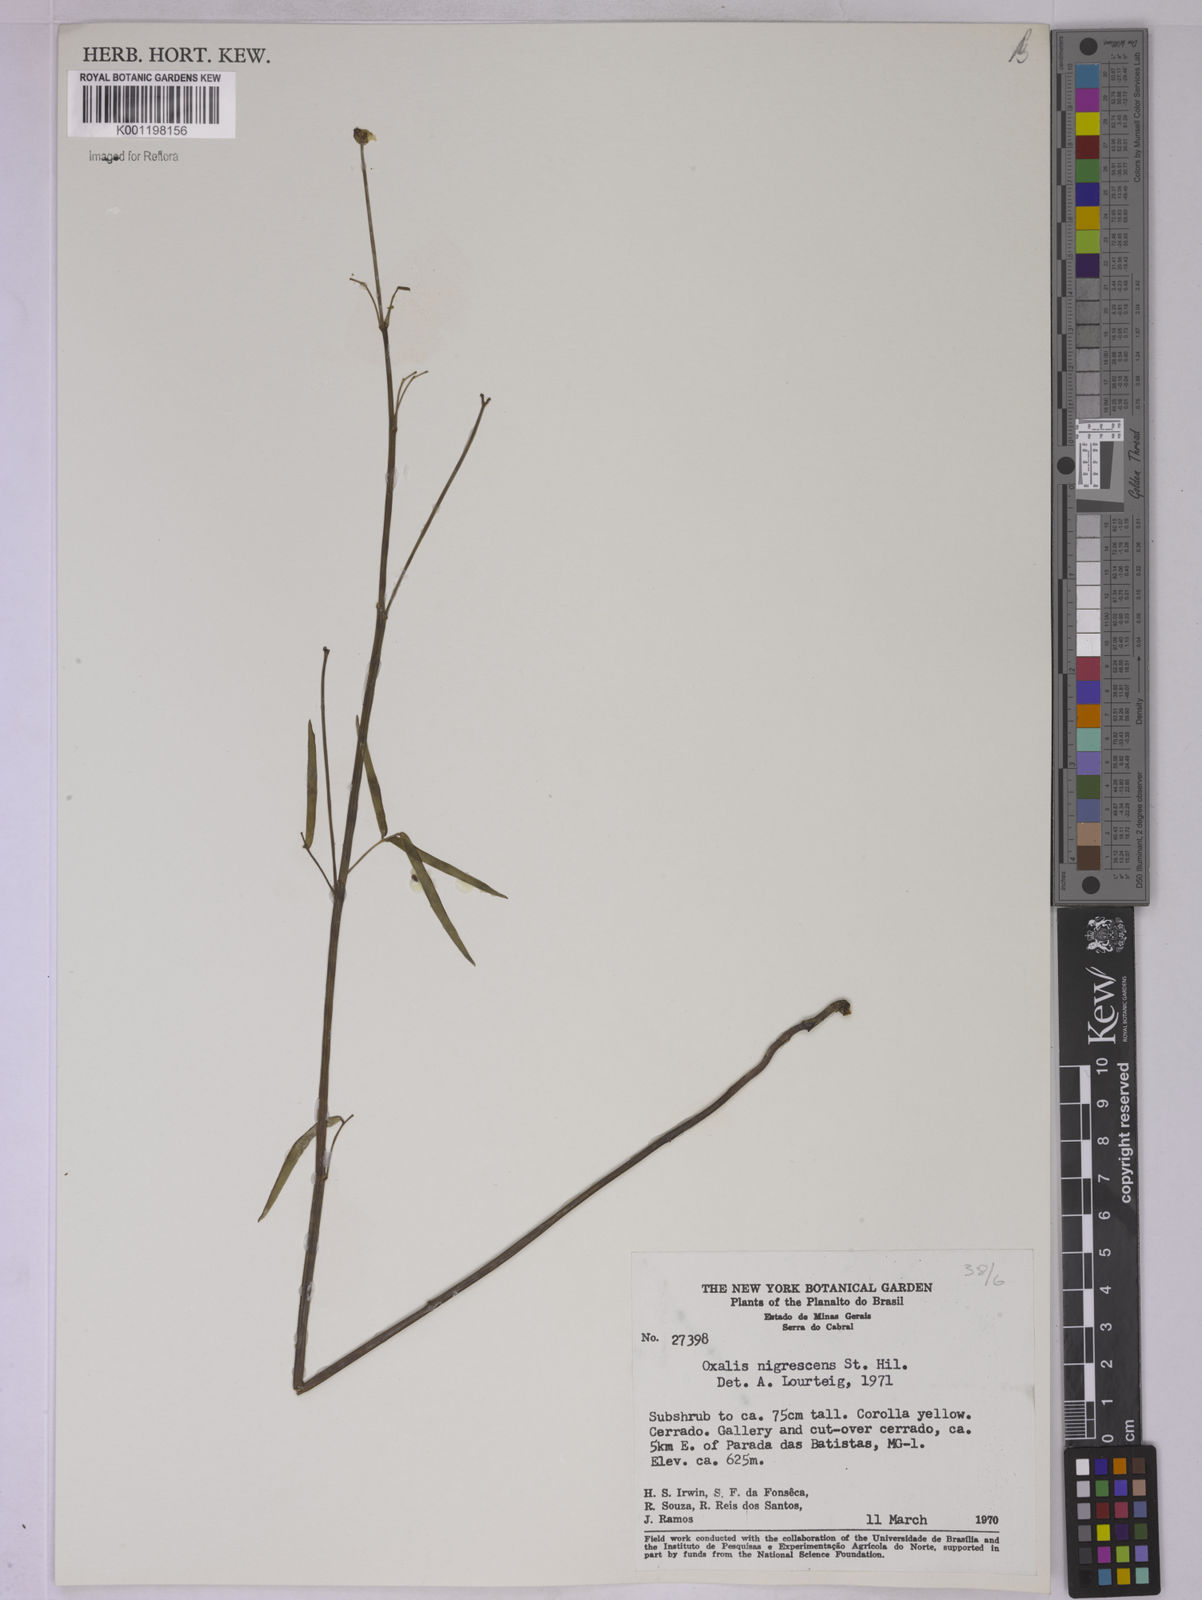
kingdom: Plantae
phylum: Tracheophyta
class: Magnoliopsida
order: Oxalidales
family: Oxalidaceae
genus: Oxalis
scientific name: Oxalis nigrescens
